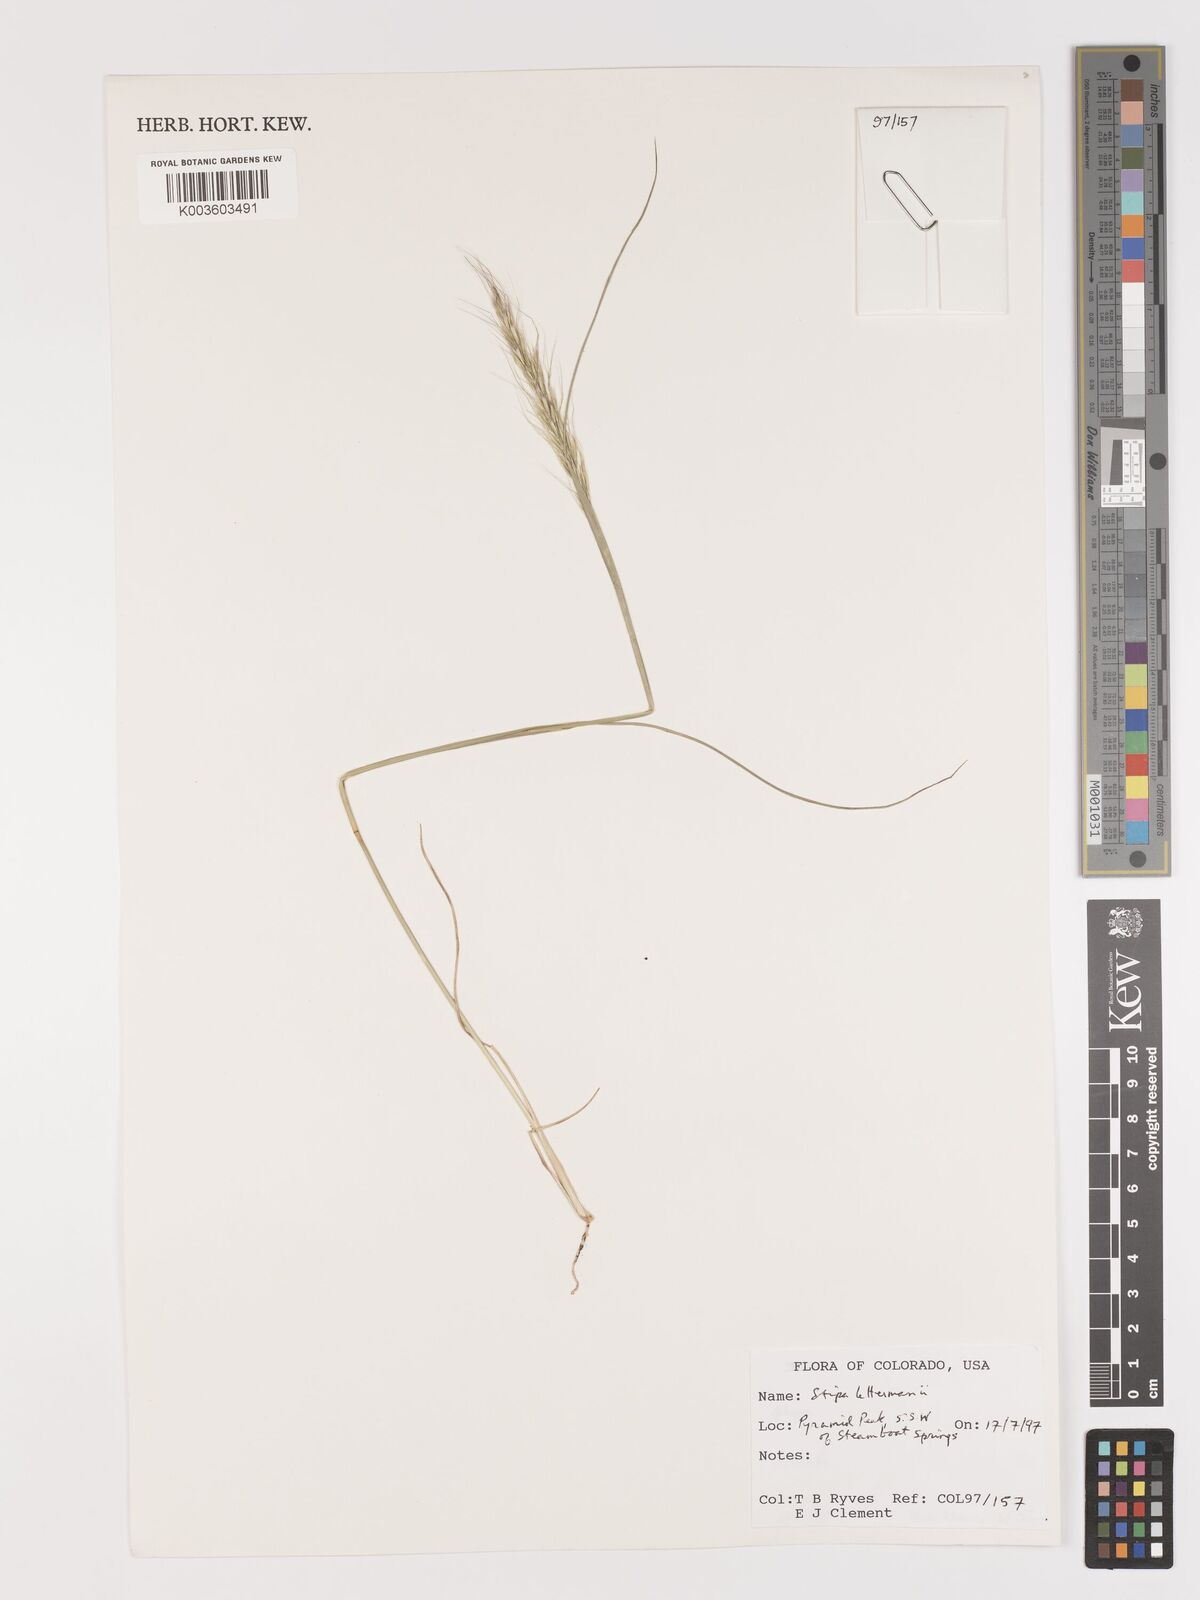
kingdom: Plantae
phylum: Tracheophyta
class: Liliopsida
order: Poales
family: Poaceae
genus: Eriocoma
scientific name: Eriocoma lettermanii
